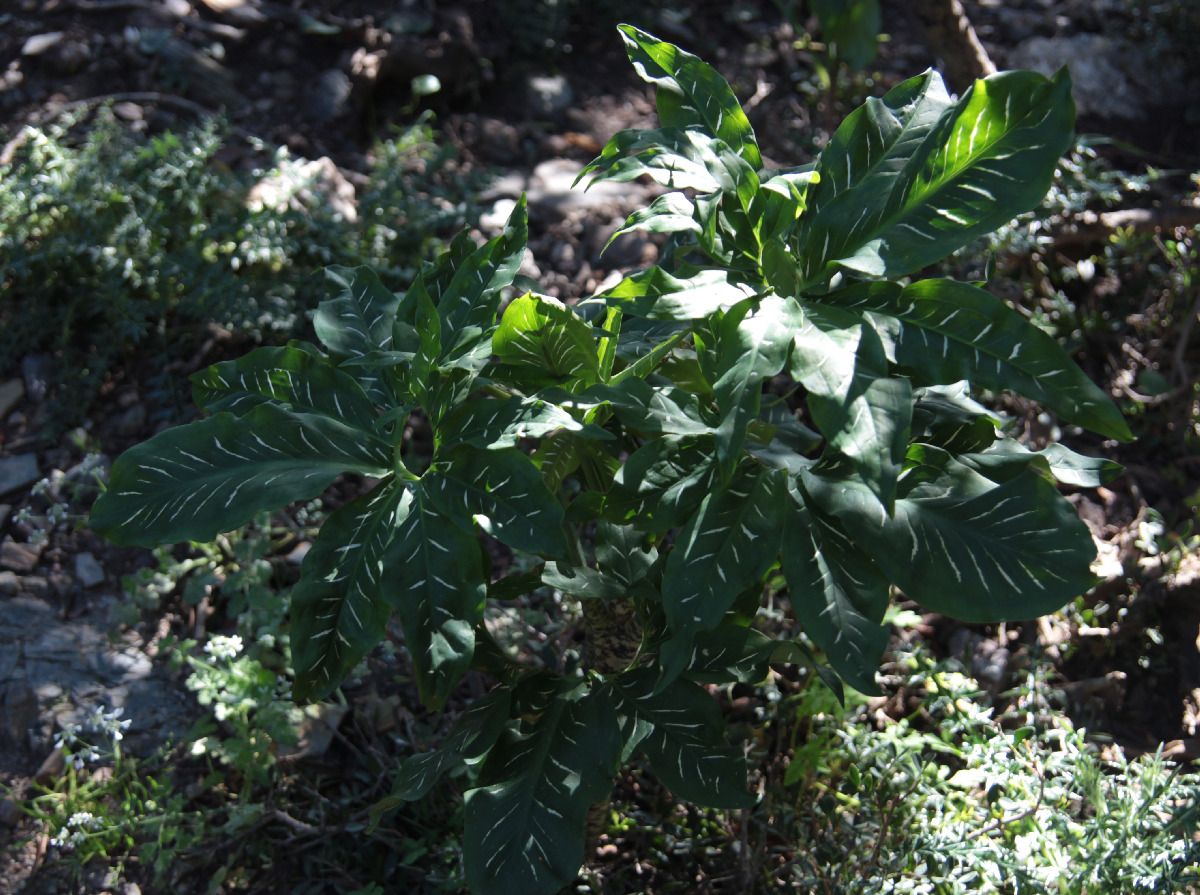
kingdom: Plantae
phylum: Tracheophyta
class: Liliopsida
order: Alismatales
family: Araceae
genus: Dracunculus
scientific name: Dracunculus vulgaris
